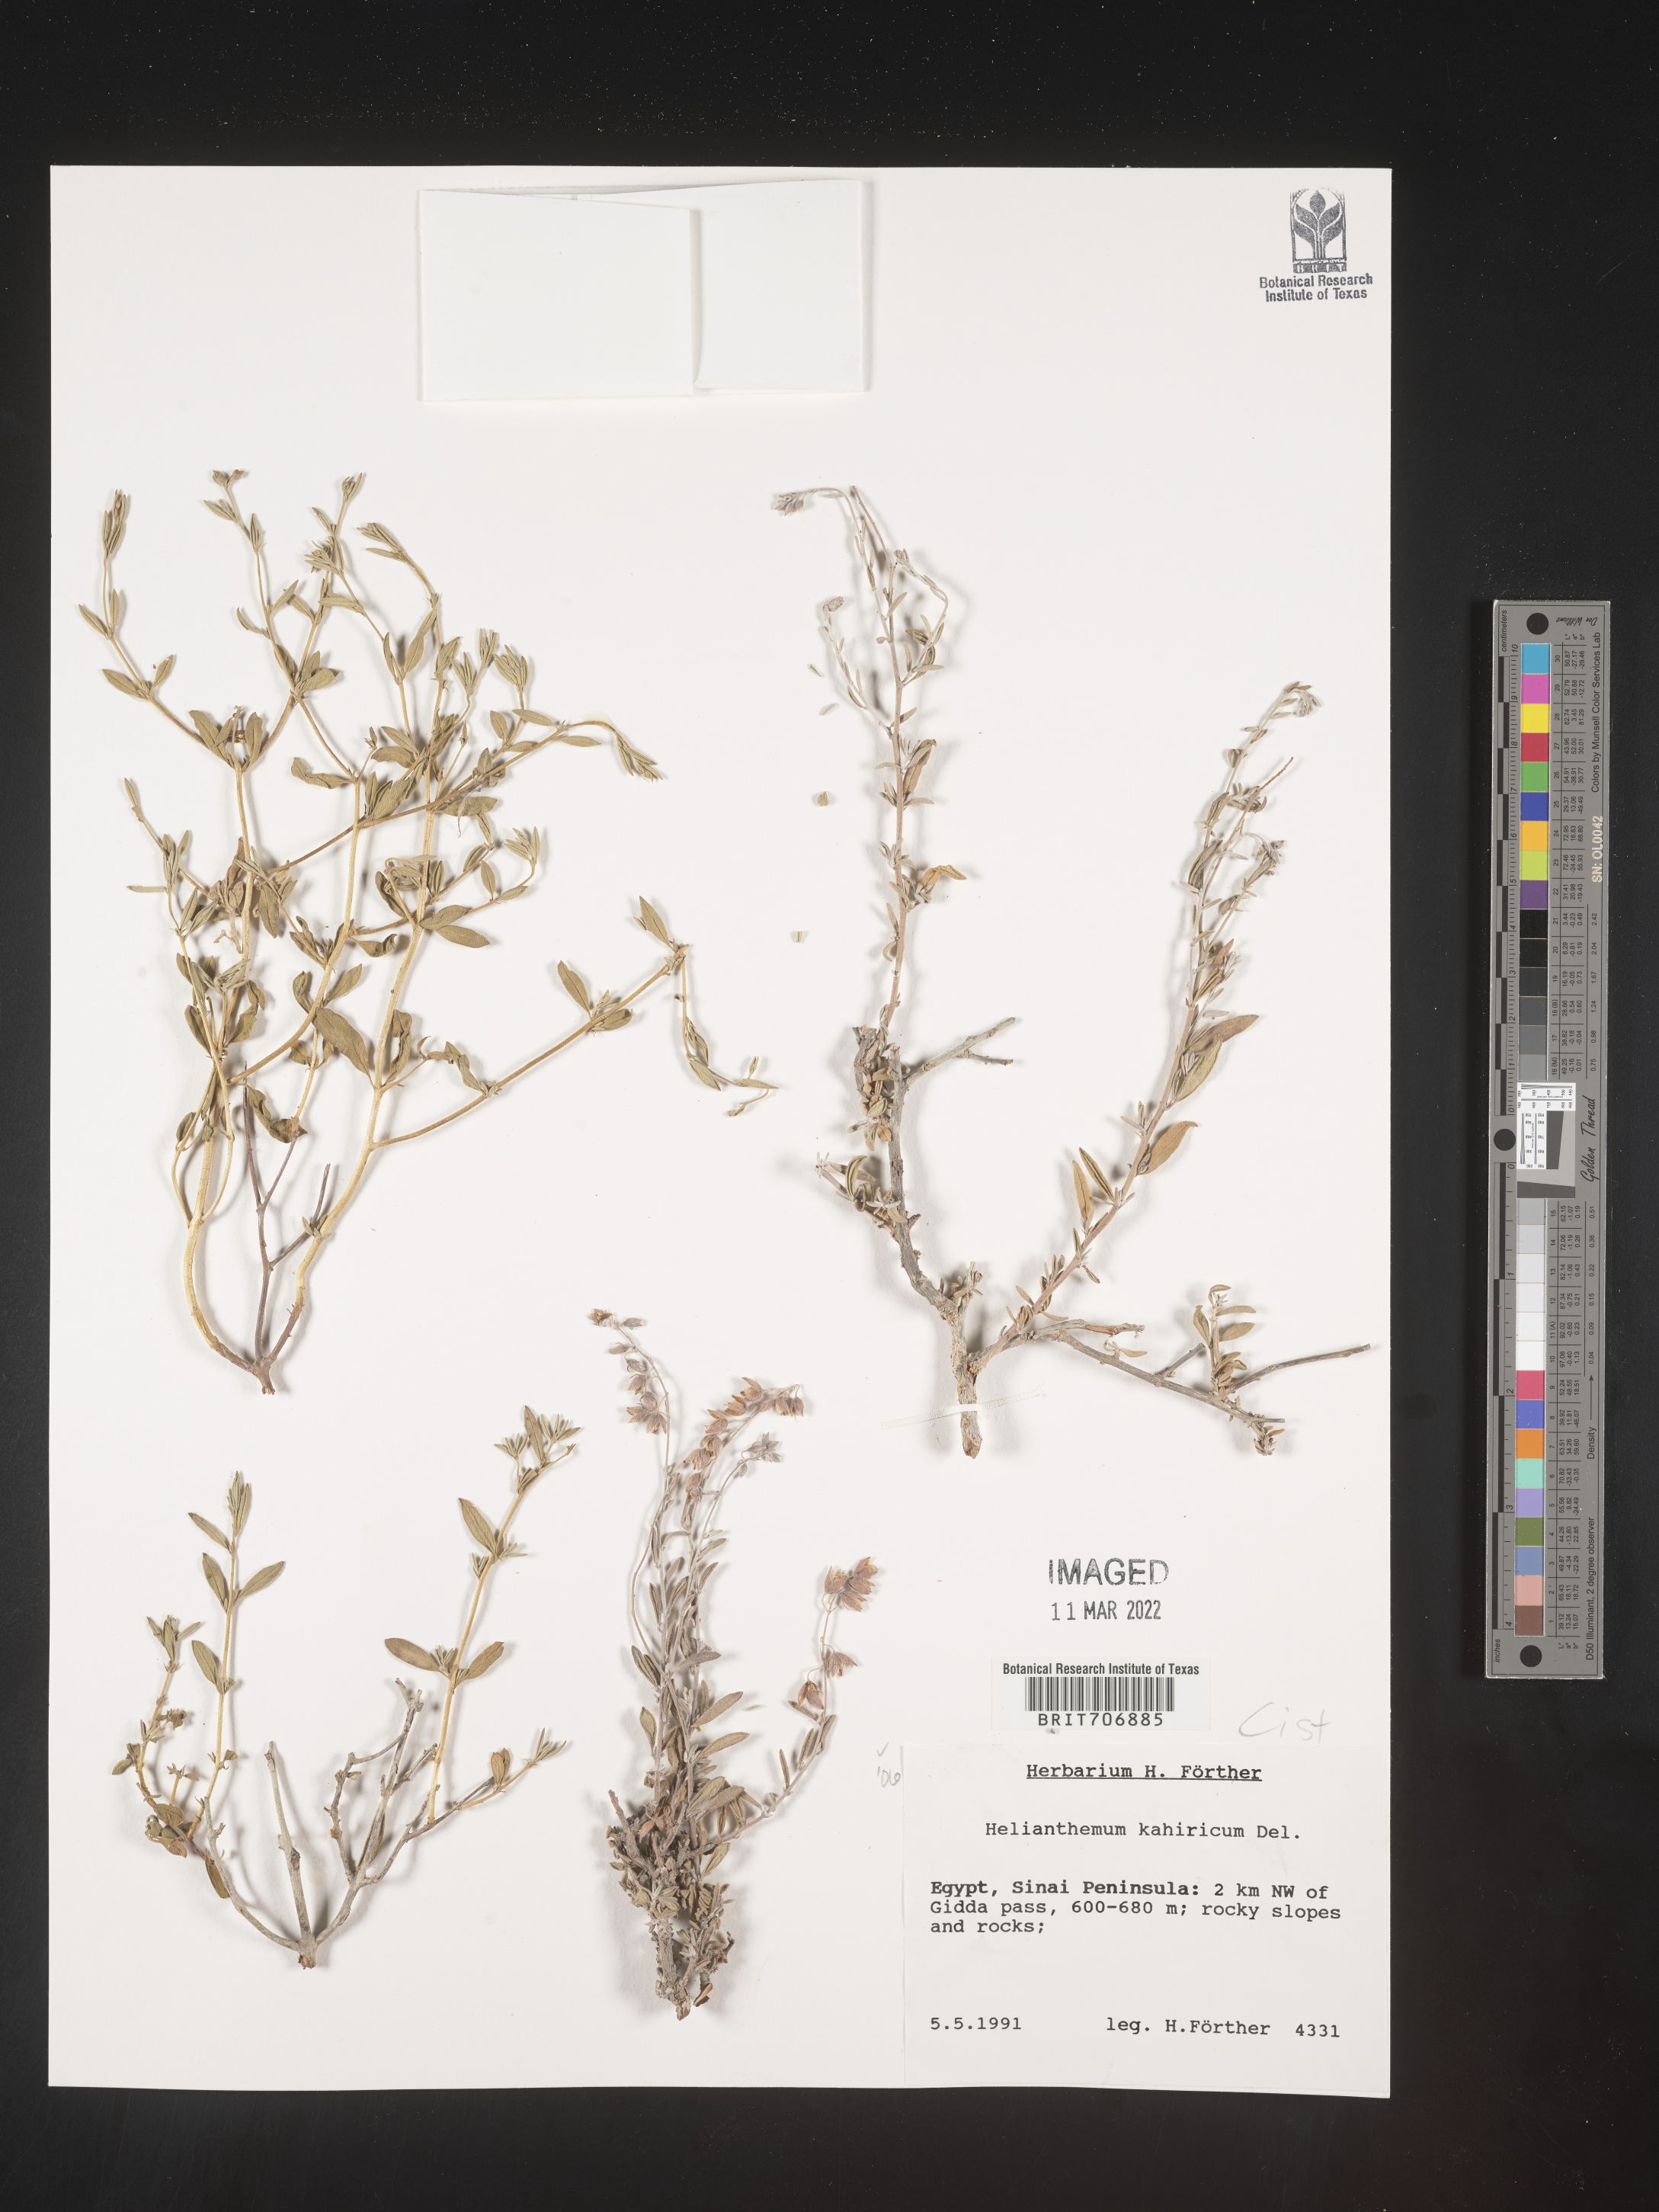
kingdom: Plantae
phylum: Tracheophyta
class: Magnoliopsida
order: Malvales
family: Cistaceae
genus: Helianthemum
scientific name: Helianthemum
